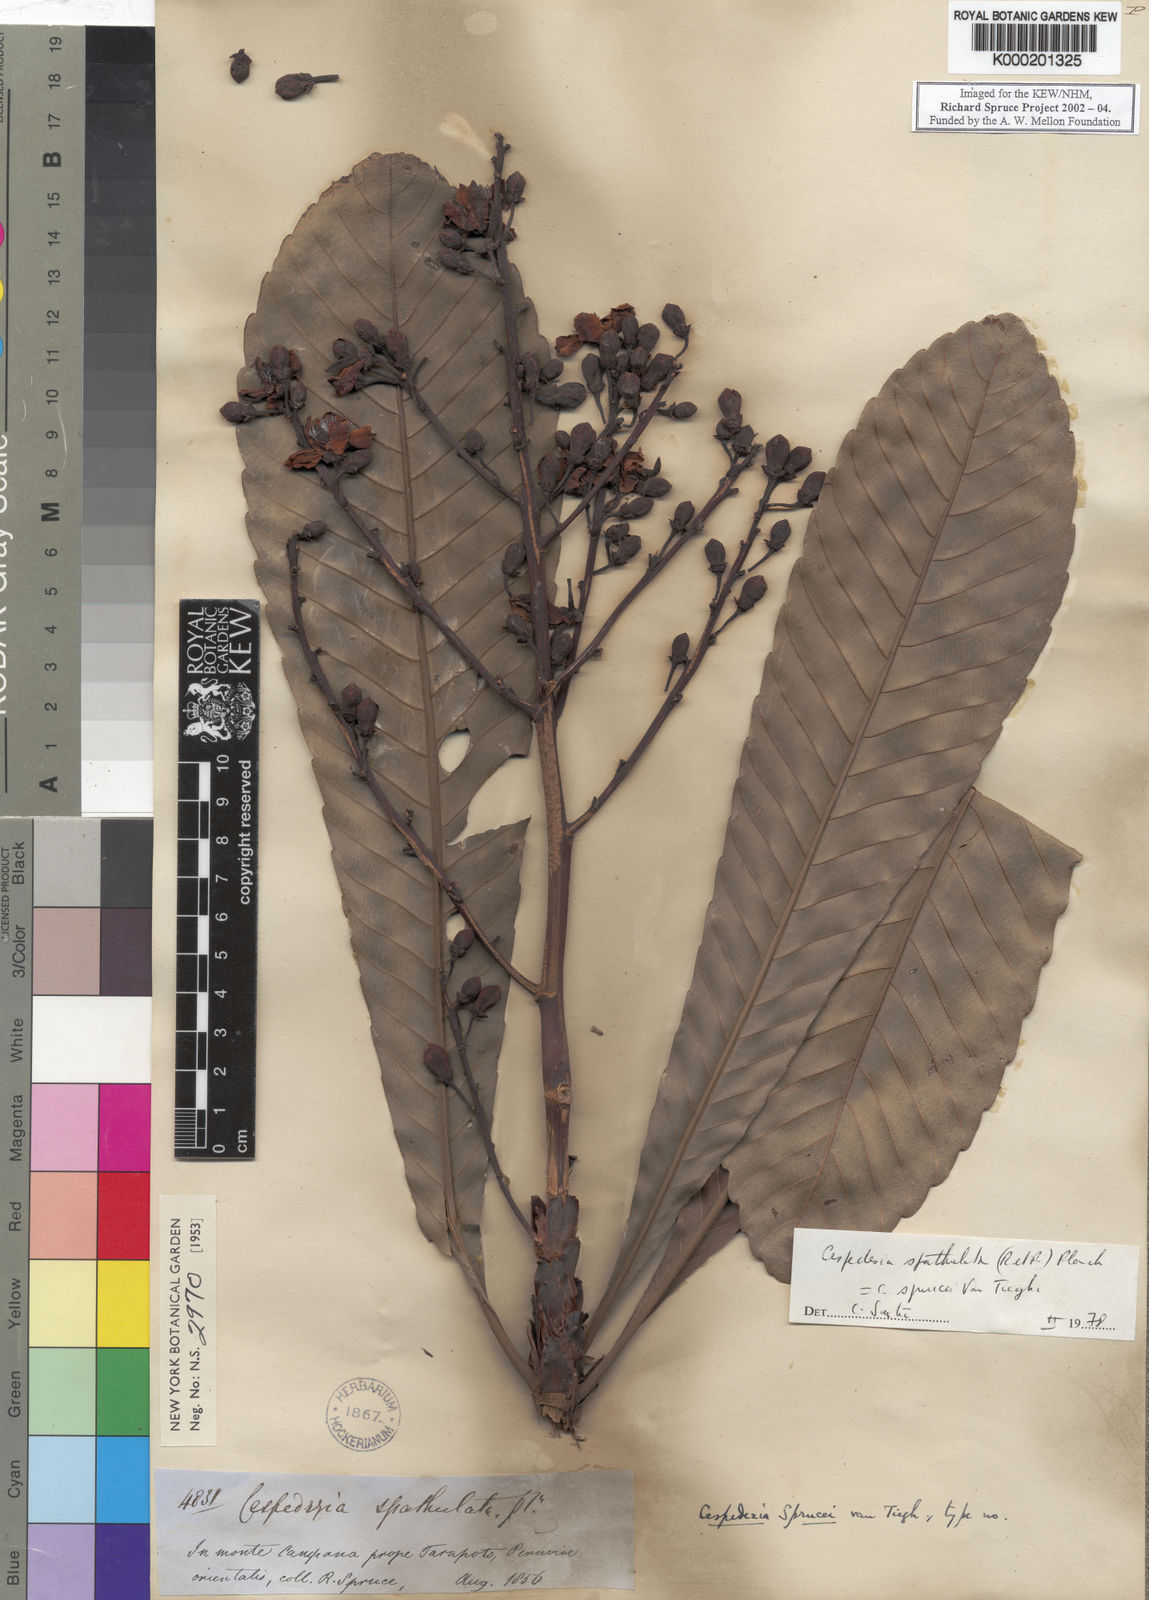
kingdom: Plantae
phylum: Tracheophyta
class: Magnoliopsida
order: Malpighiales
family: Ochnaceae
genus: Cespedesia
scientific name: Cespedesia spathulata
